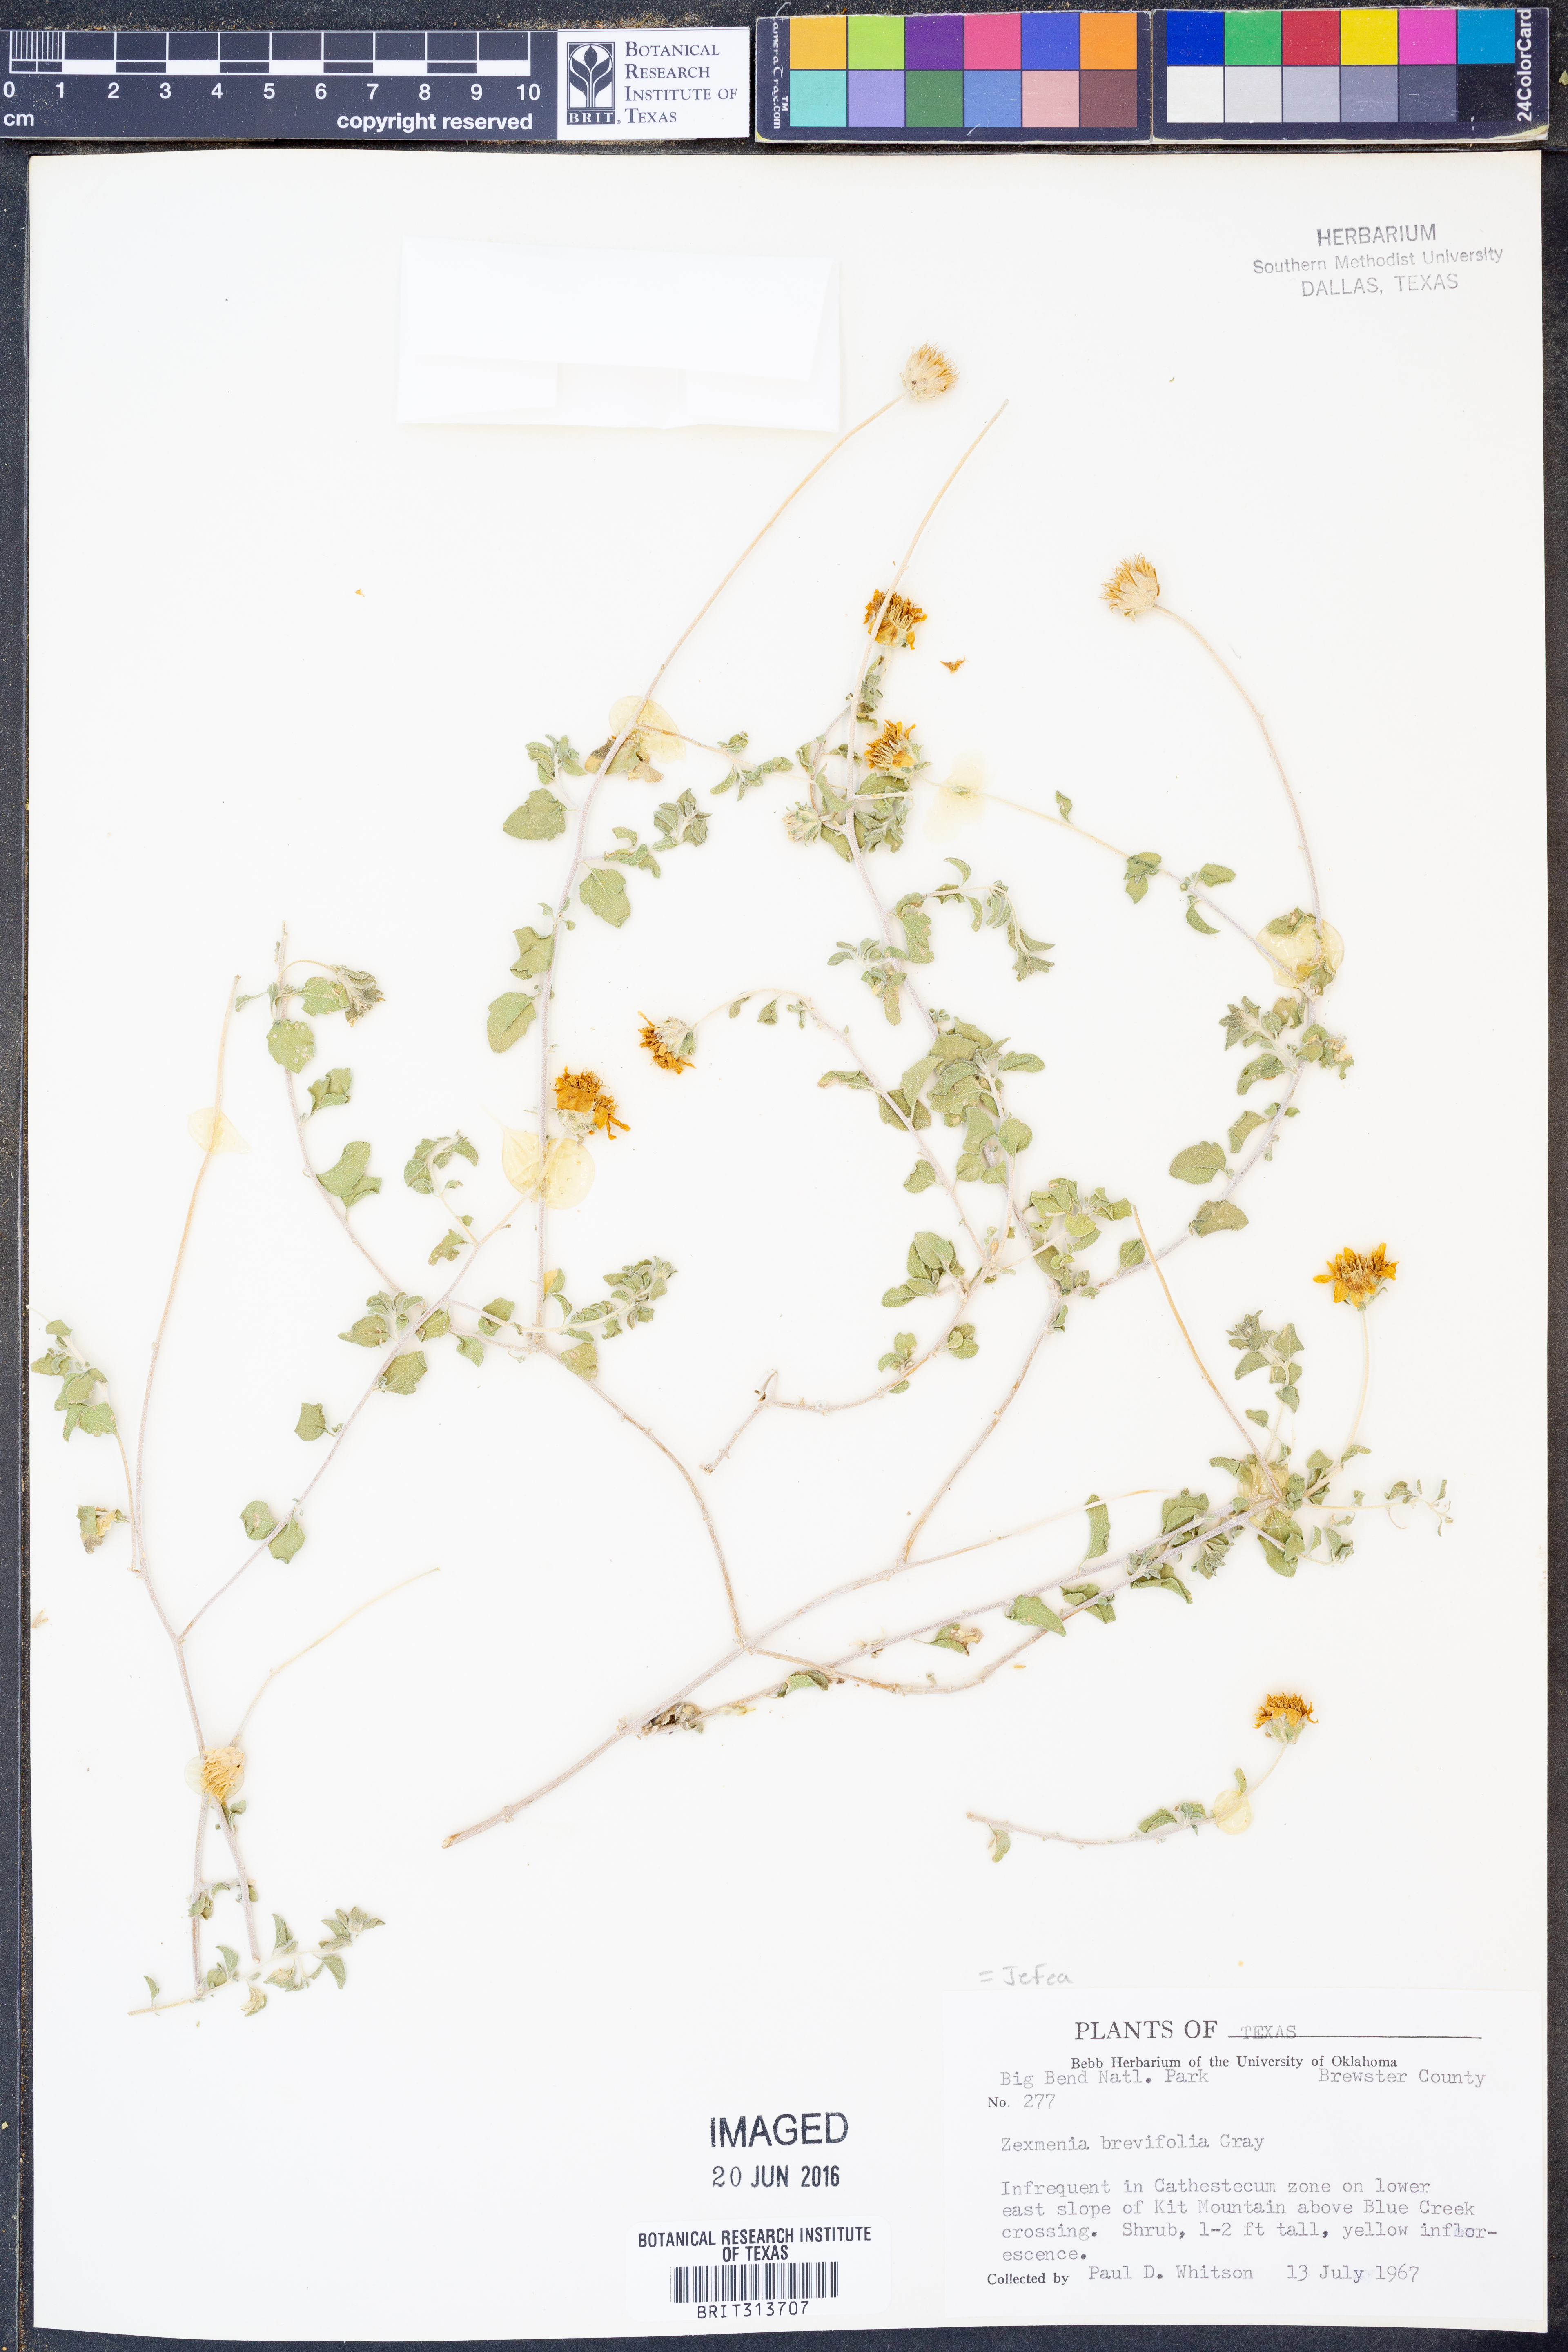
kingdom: Plantae
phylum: Tracheophyta
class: Magnoliopsida
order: Asterales
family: Asteraceae
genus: Jefea
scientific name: Jefea brevifolia
